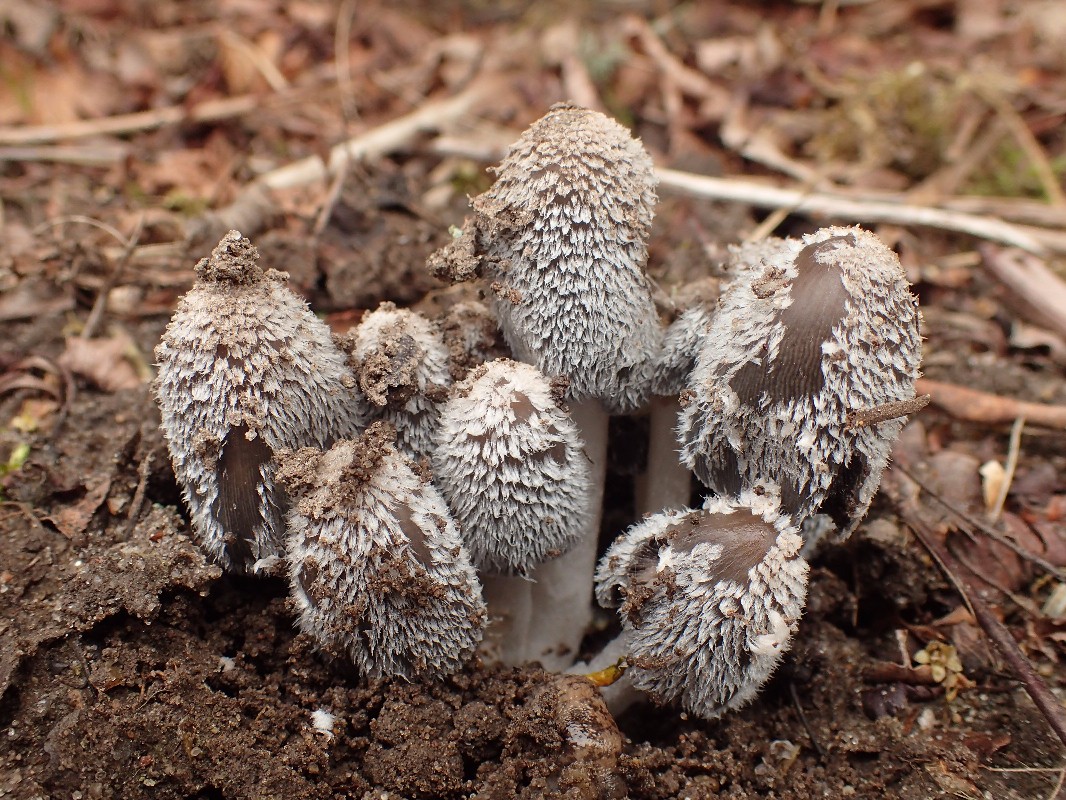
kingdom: Fungi
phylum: Basidiomycota
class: Agaricomycetes
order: Agaricales
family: Psathyrellaceae
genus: Coprinopsis
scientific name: Coprinopsis lagopus
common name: dunstokket blækhat
